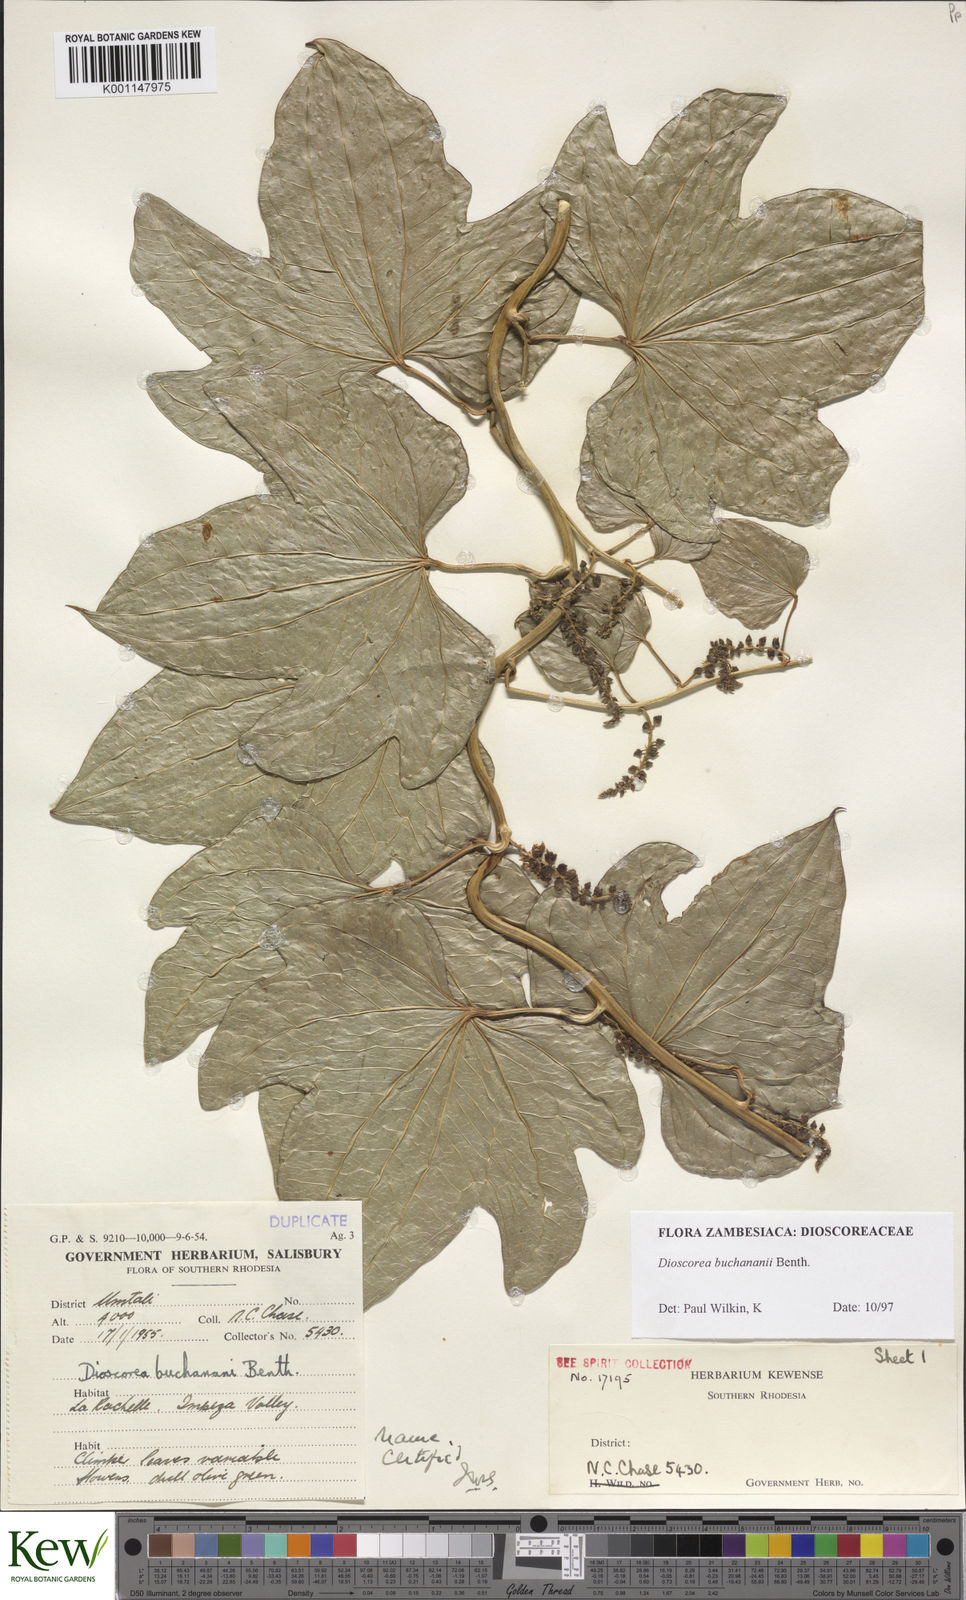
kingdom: Plantae
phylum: Tracheophyta
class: Liliopsida
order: Dioscoreales
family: Dioscoreaceae
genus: Dioscorea
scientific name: Dioscorea buchananii
